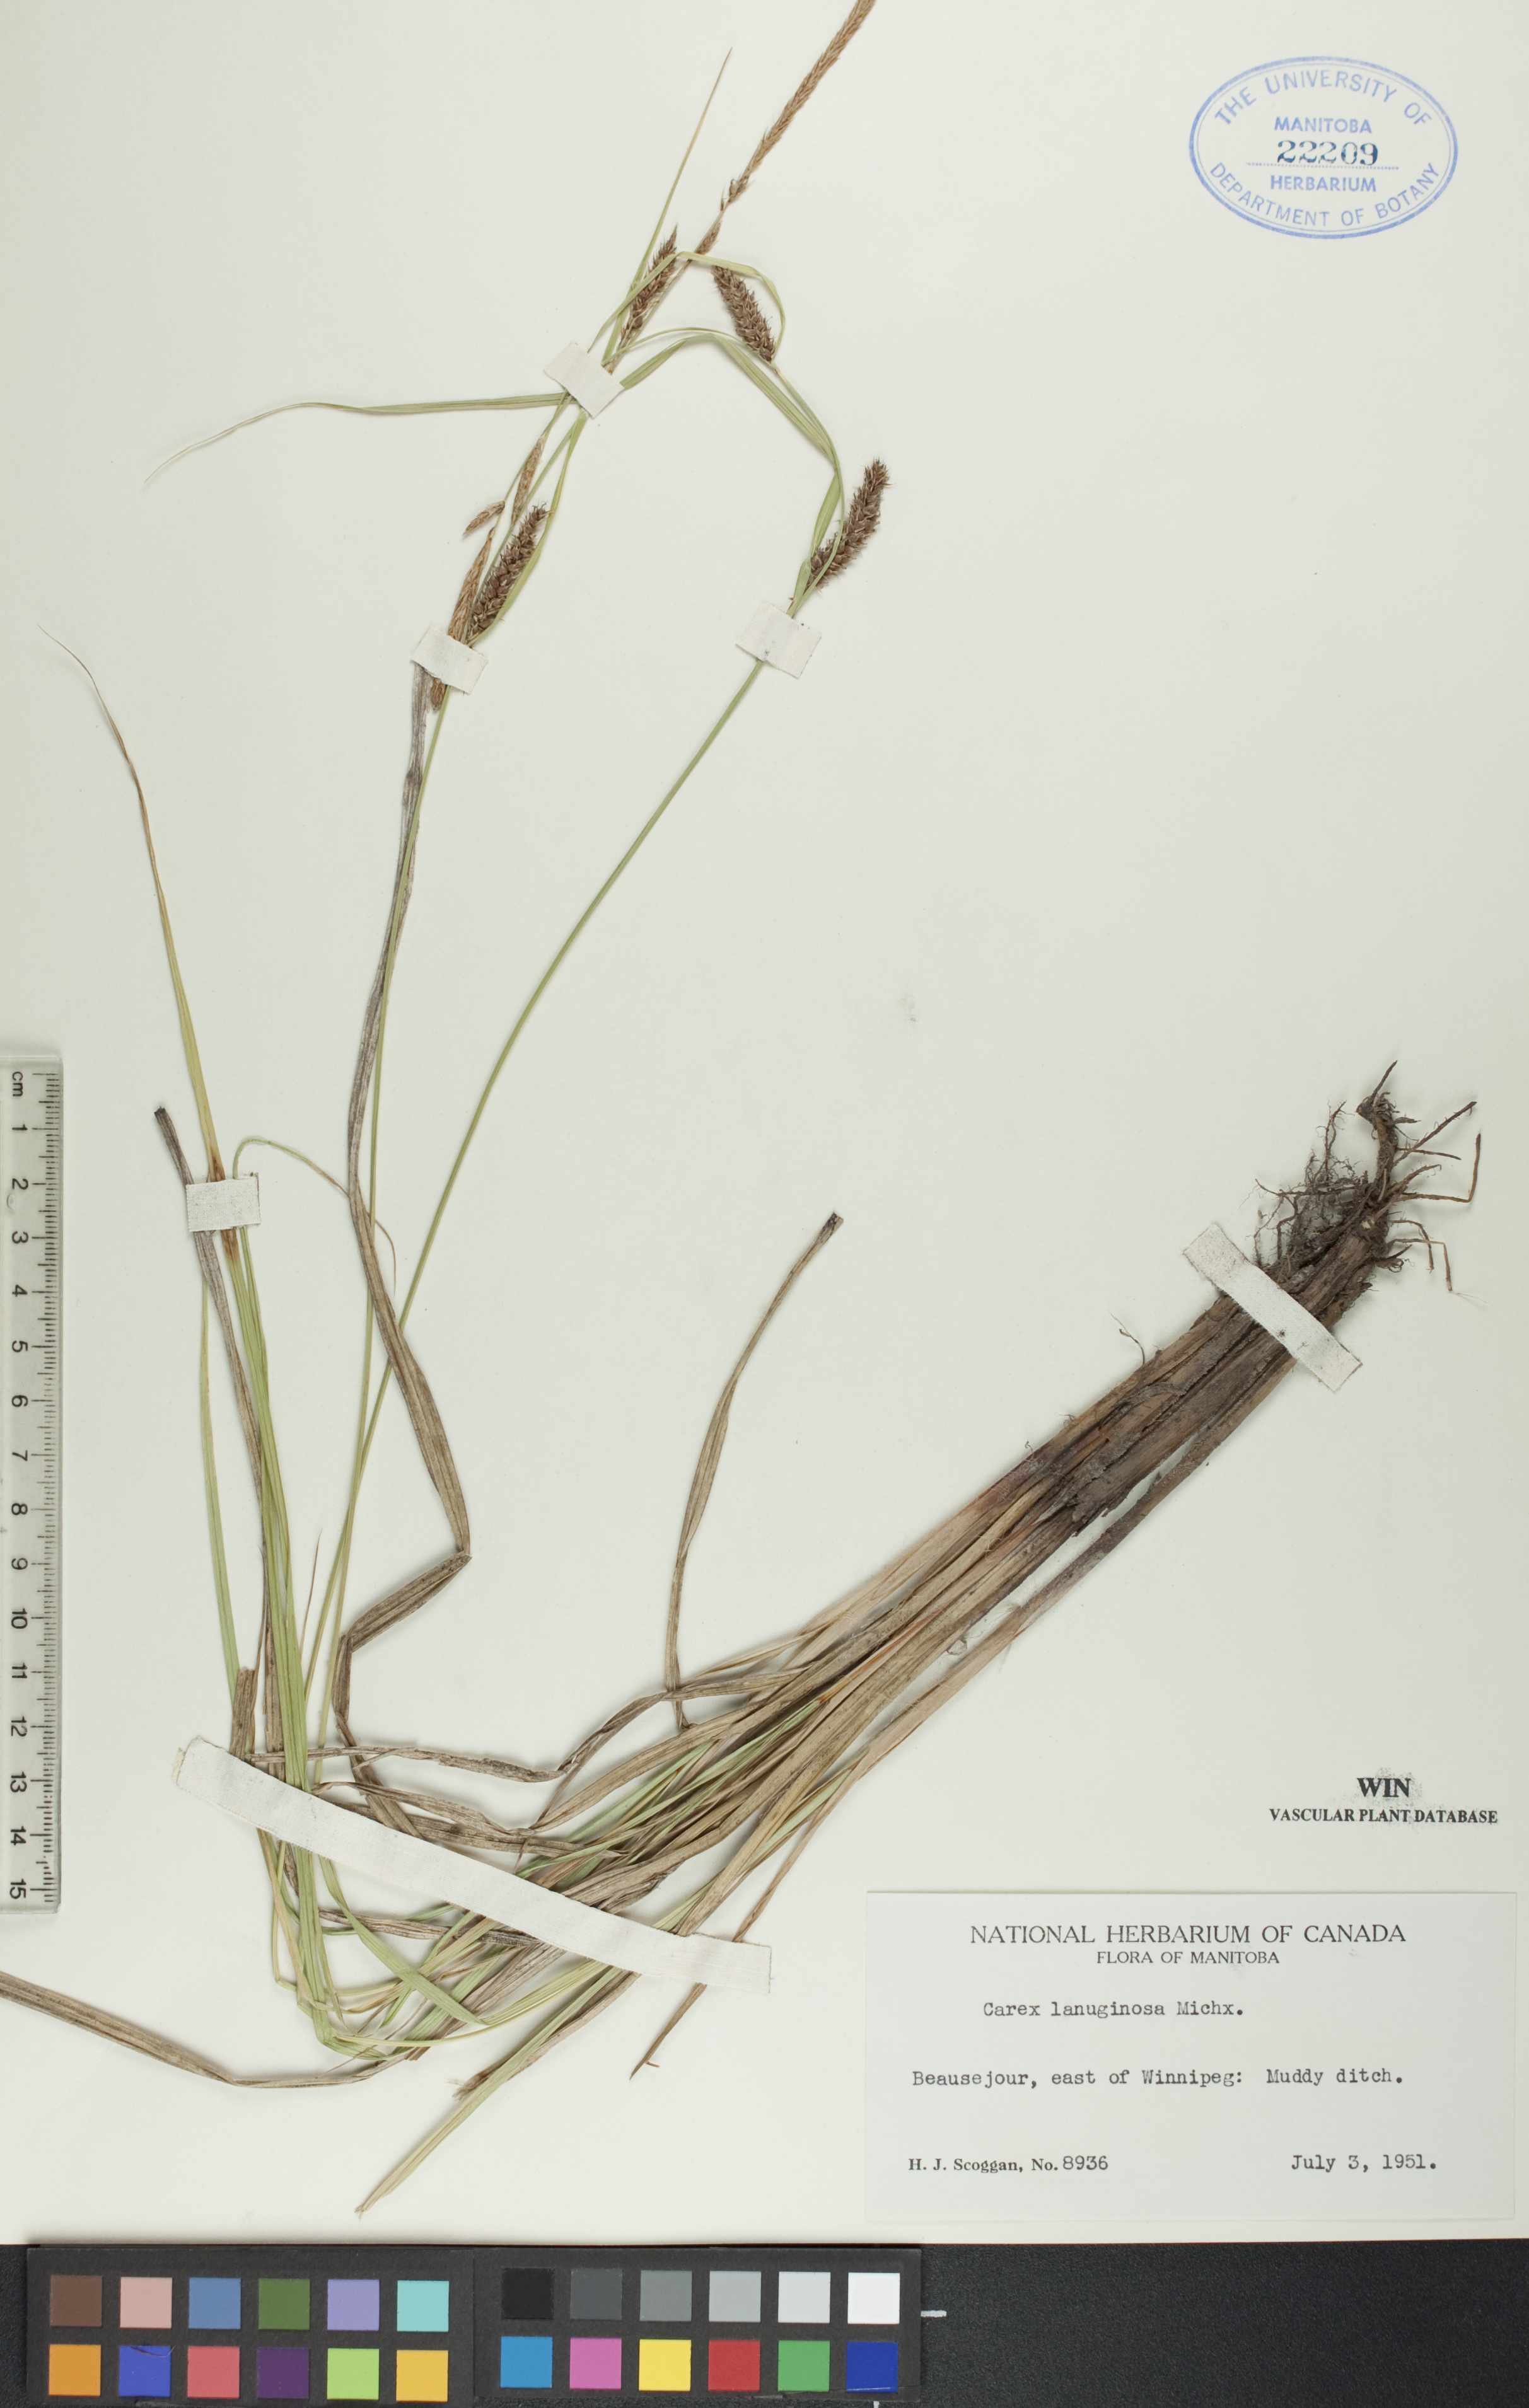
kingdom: Plantae
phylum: Tracheophyta
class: Liliopsida
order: Poales
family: Cyperaceae
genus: Carex
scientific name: Carex lasiocarpa
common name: Slender sedge
